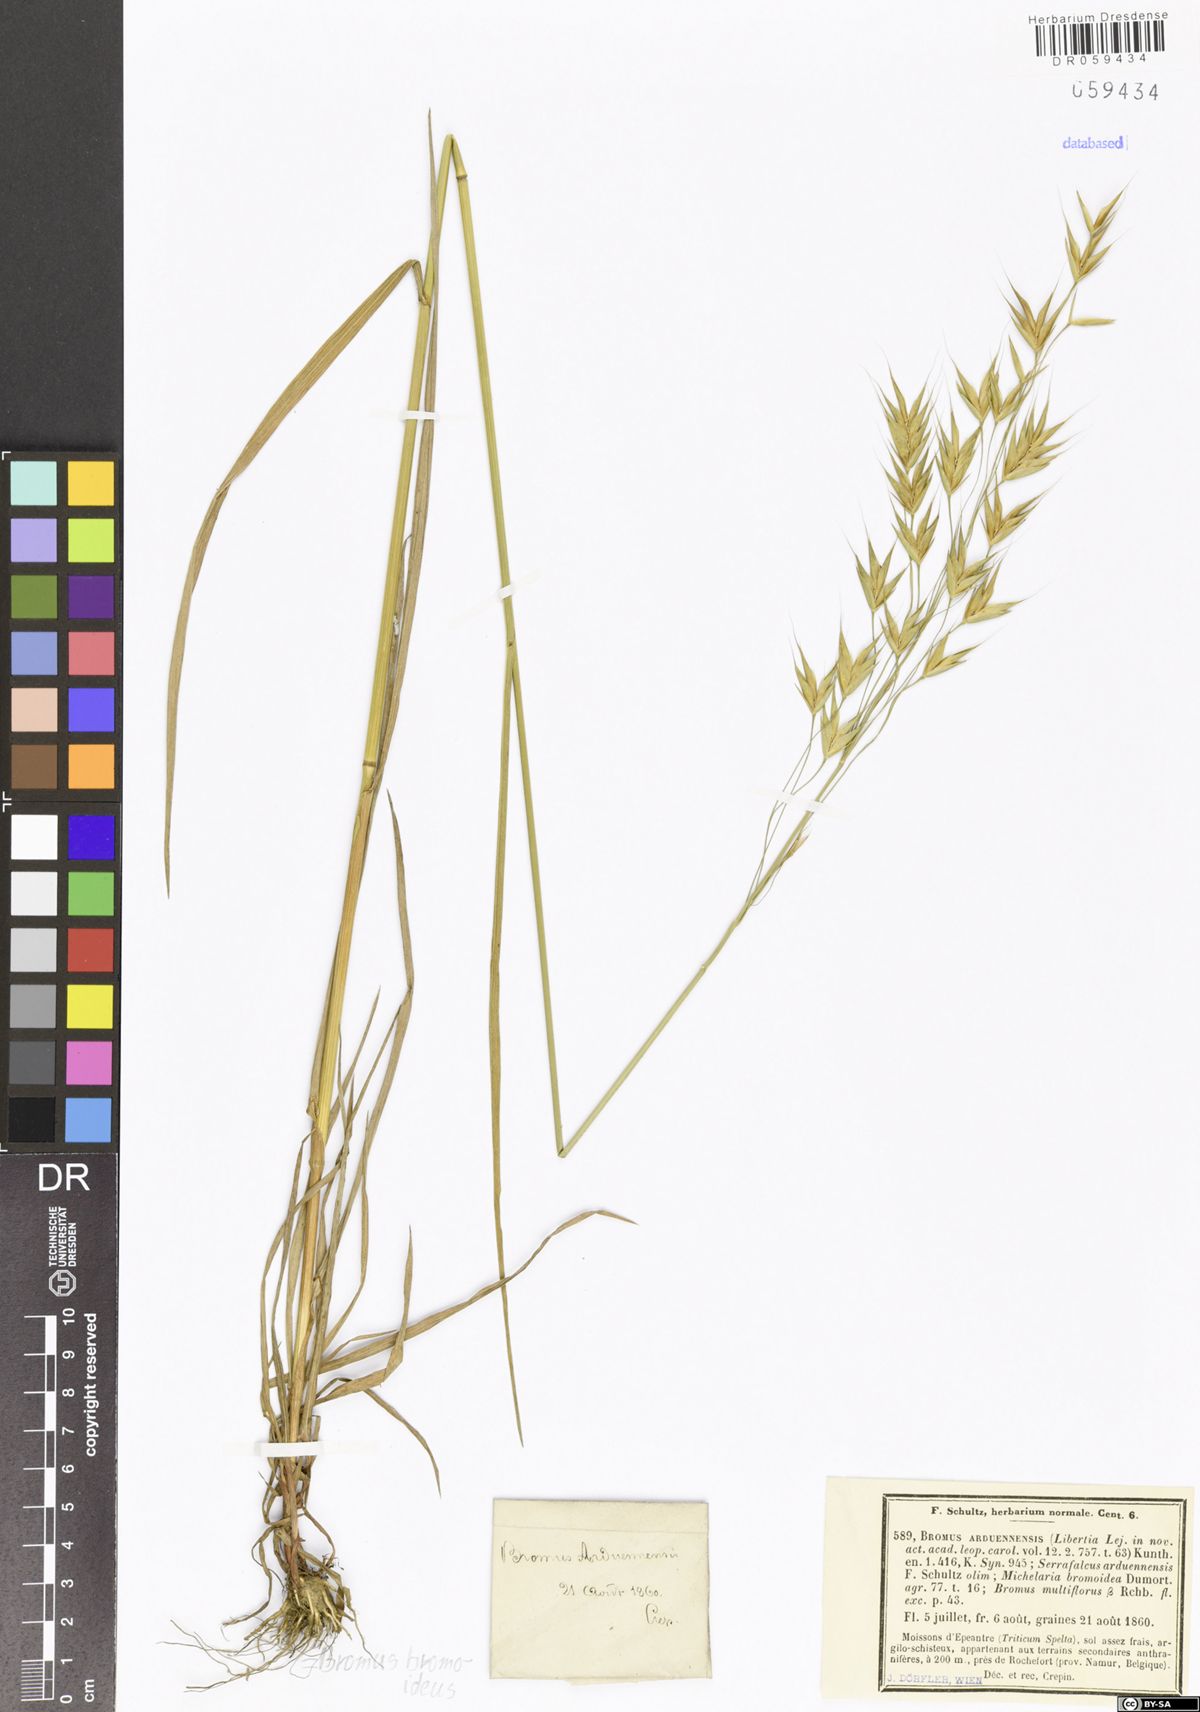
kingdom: Plantae
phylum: Tracheophyta
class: Liliopsida
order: Poales
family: Poaceae
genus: Bromus
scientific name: Bromus bromoideus
